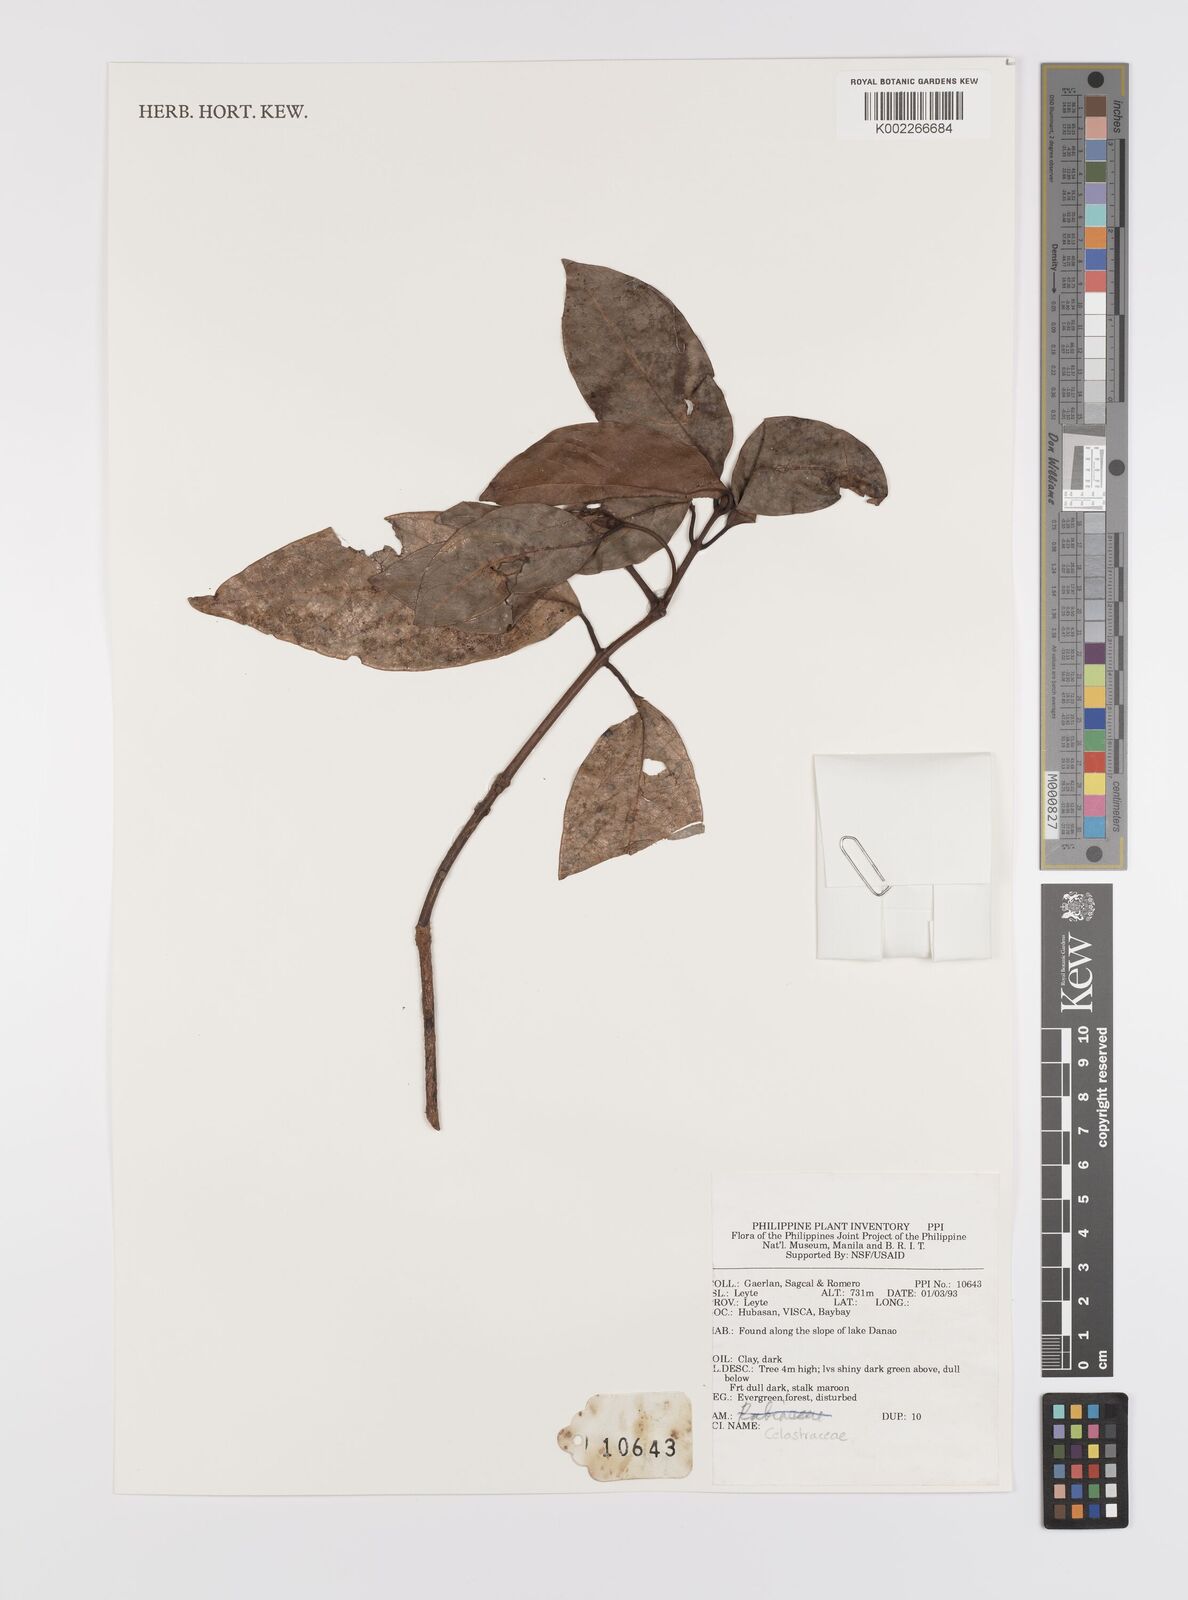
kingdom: Plantae
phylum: Tracheophyta
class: Magnoliopsida
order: Celastrales
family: Celastraceae
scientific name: Celastraceae
